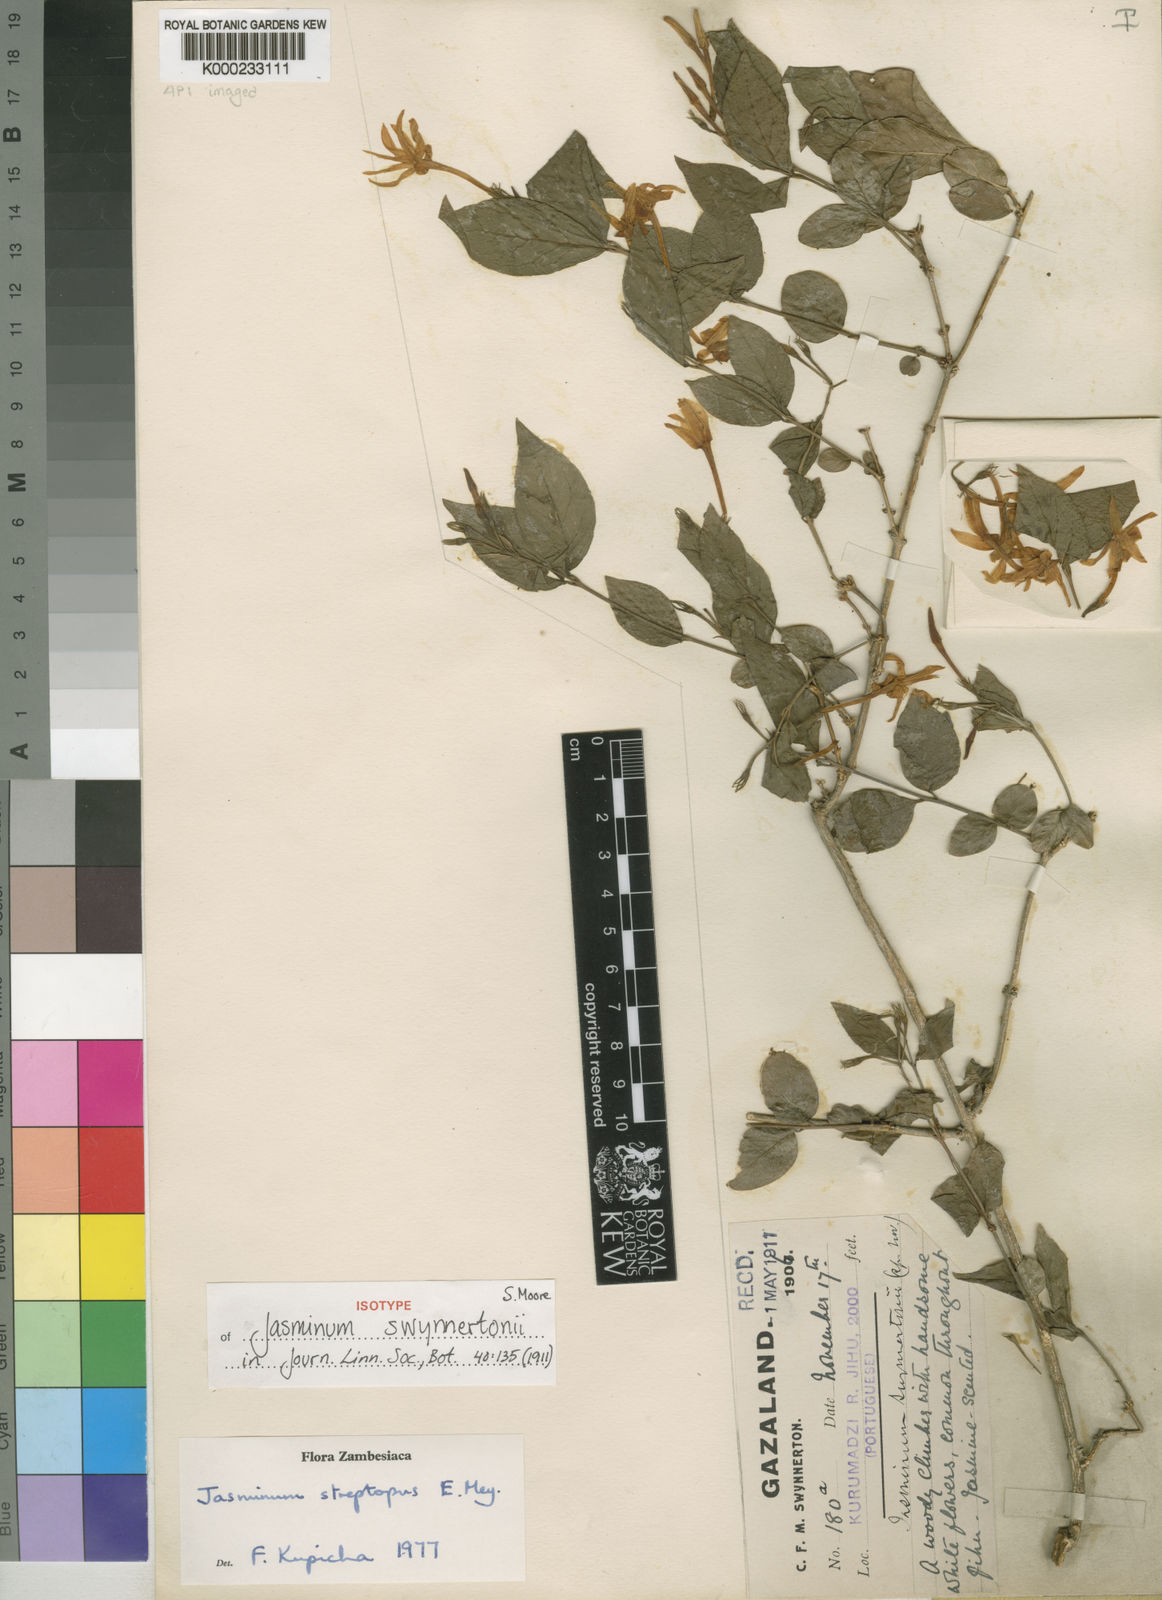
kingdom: Plantae
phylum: Tracheophyta
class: Magnoliopsida
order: Lamiales
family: Oleaceae
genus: Jasminum
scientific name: Jasminum
